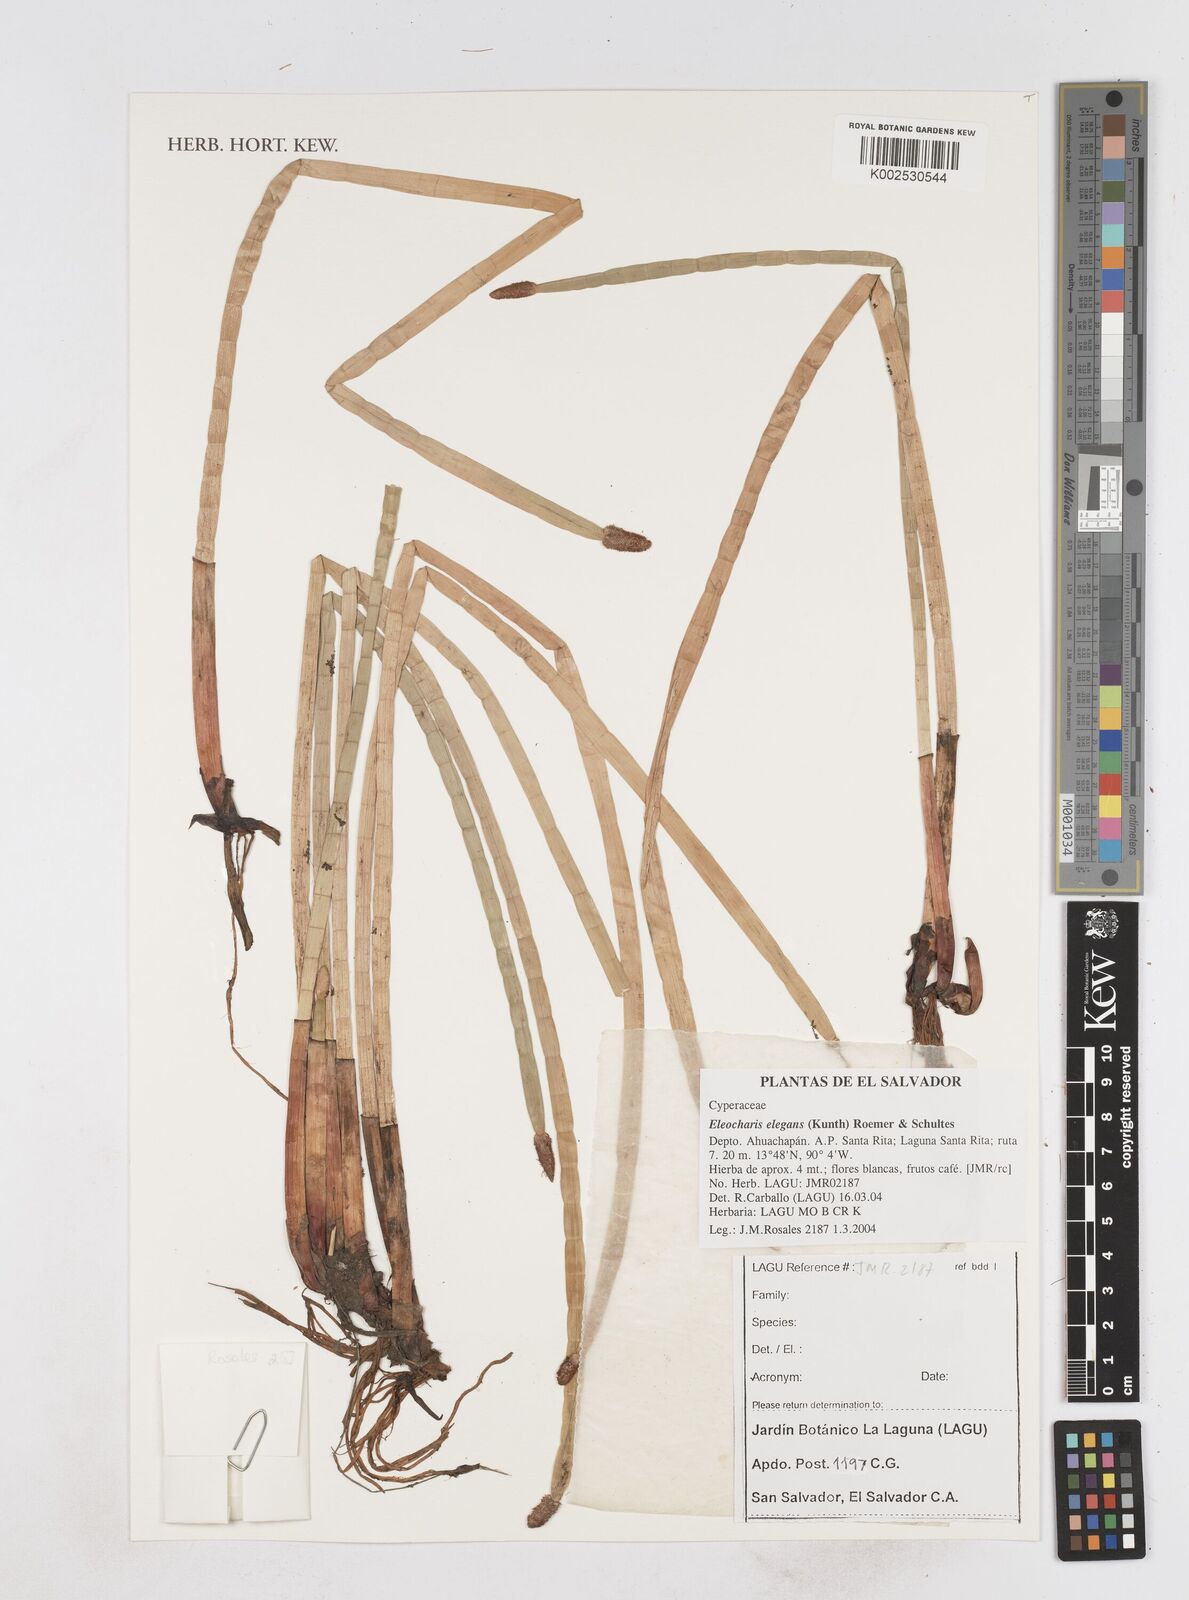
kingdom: Plantae
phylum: Tracheophyta
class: Liliopsida
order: Poales
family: Cyperaceae
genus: Eleocharis
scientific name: Eleocharis elegans
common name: Elegant spike-rush
